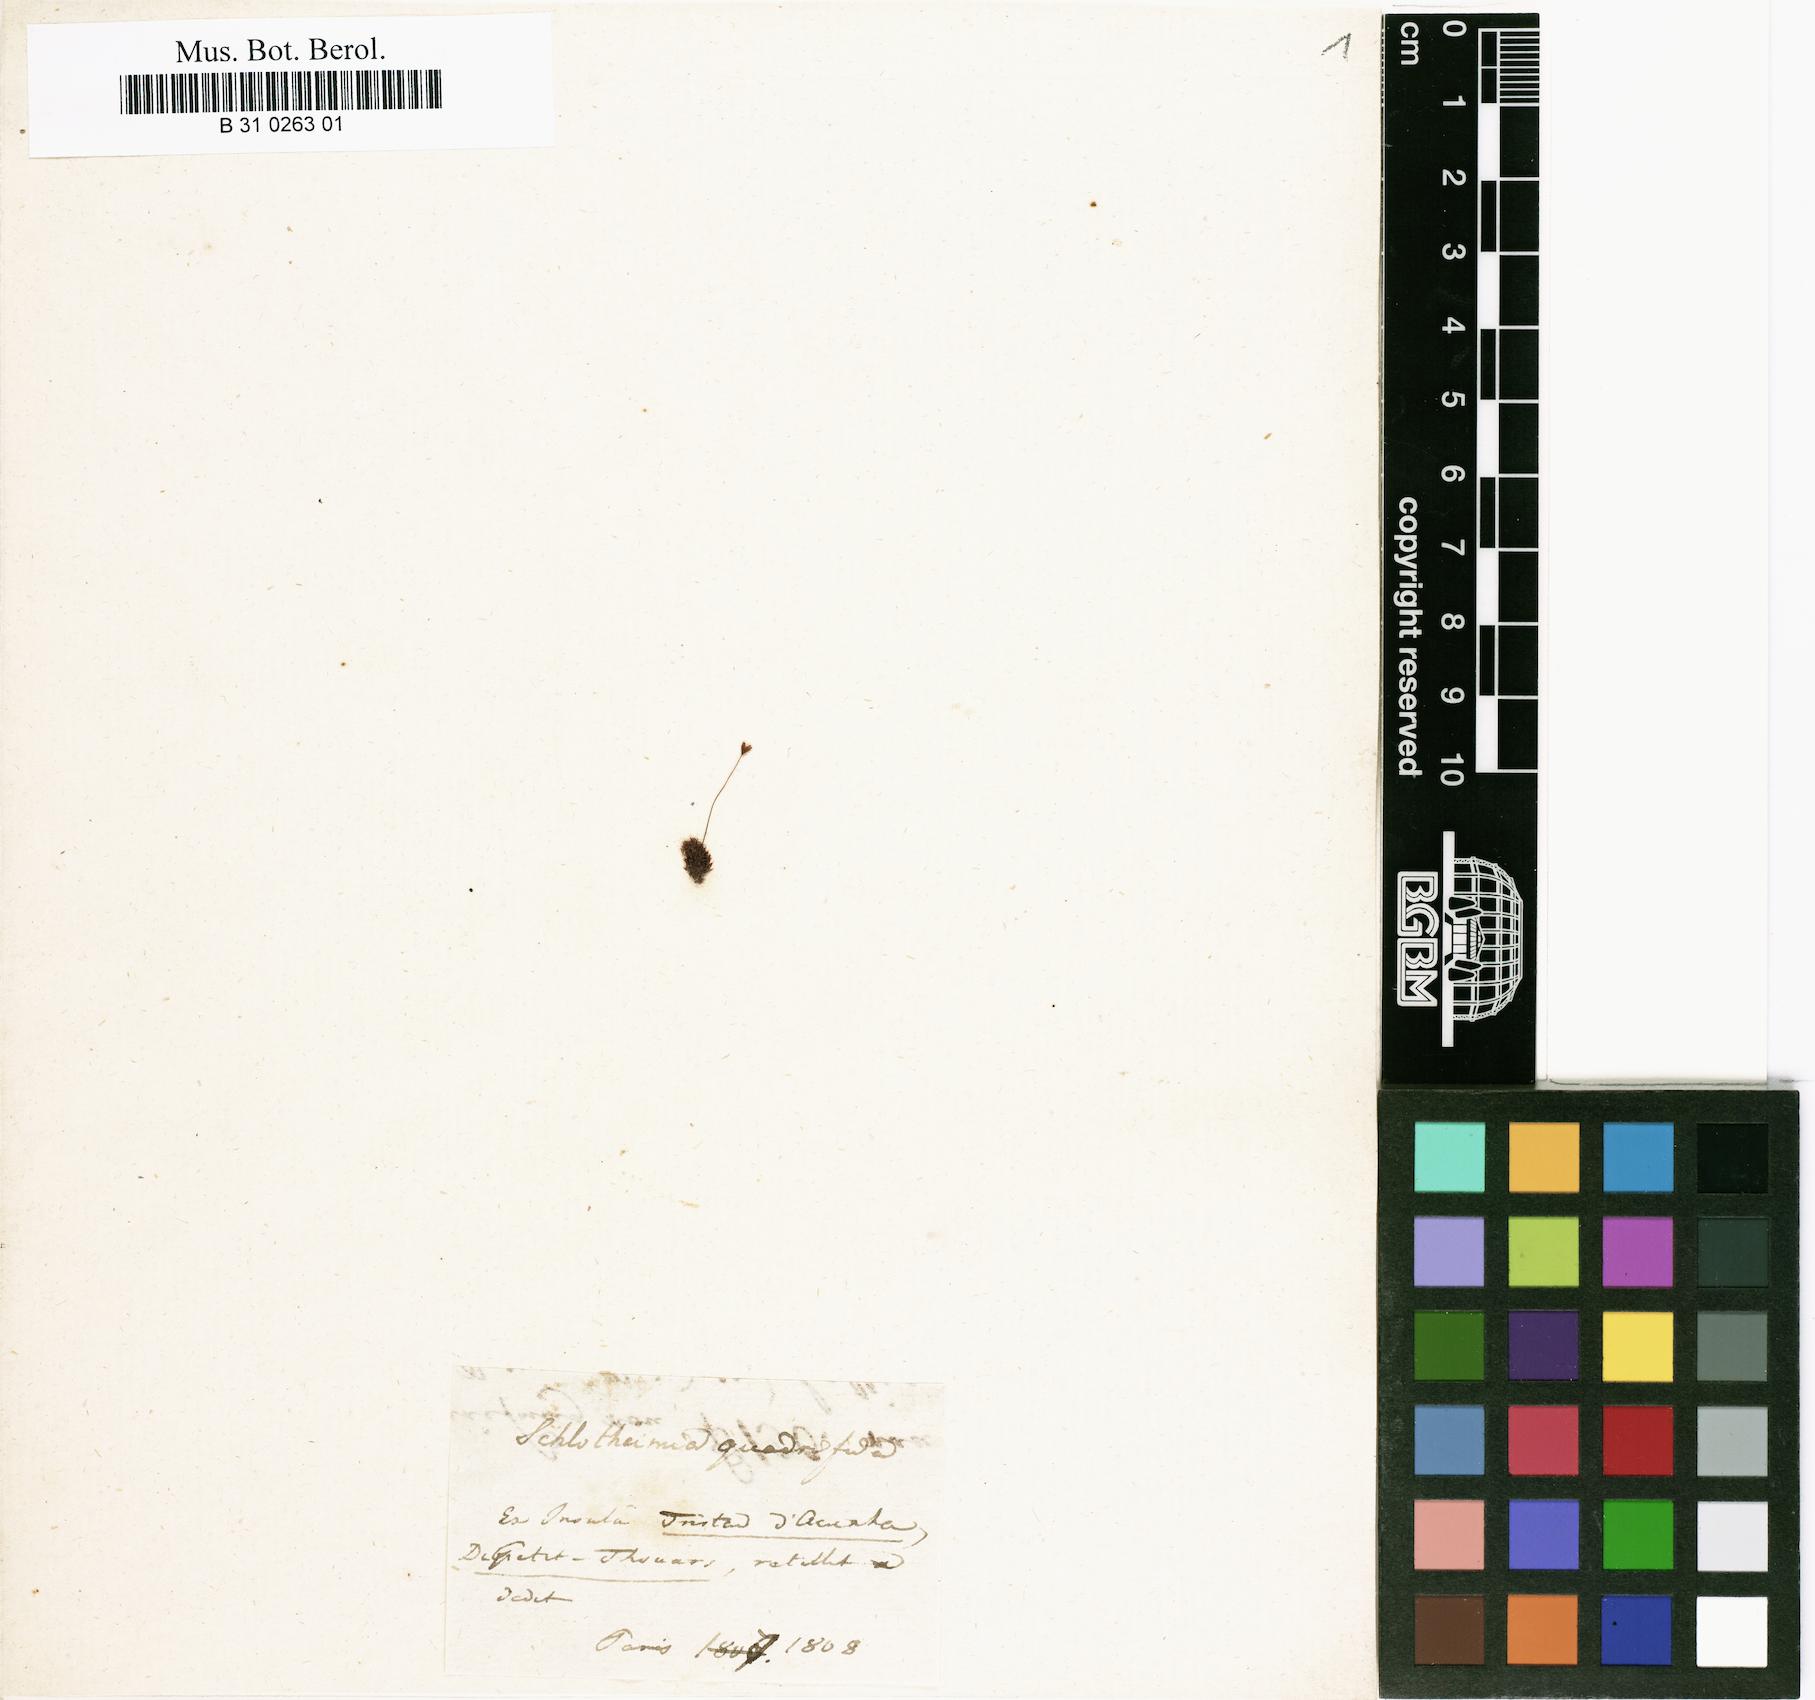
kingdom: Plantae
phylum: Bryophyta
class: Bryopsida
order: Orthotrichales
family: Orthotrichaceae
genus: Schlotheimia
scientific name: Schlotheimia angulosa
